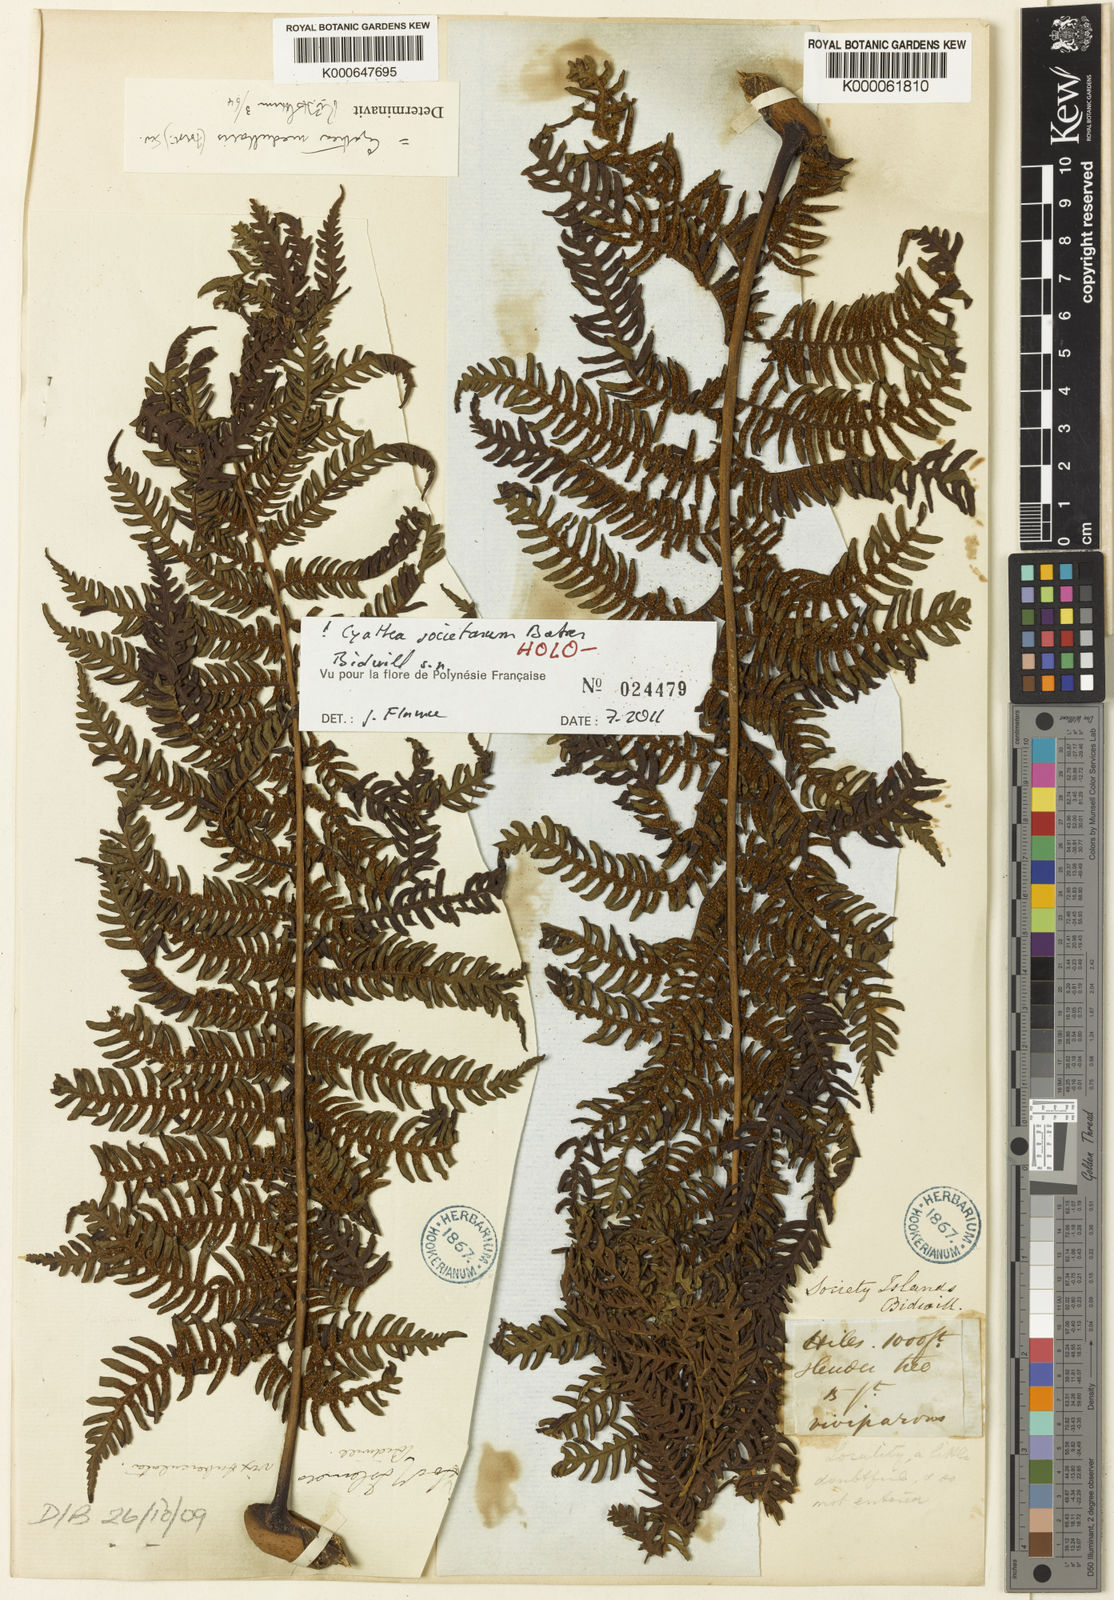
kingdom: Plantae
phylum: Tracheophyta
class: Polypodiopsida
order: Cyatheales
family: Cyatheaceae
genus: Sphaeropteris
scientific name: Sphaeropteris medullaris
